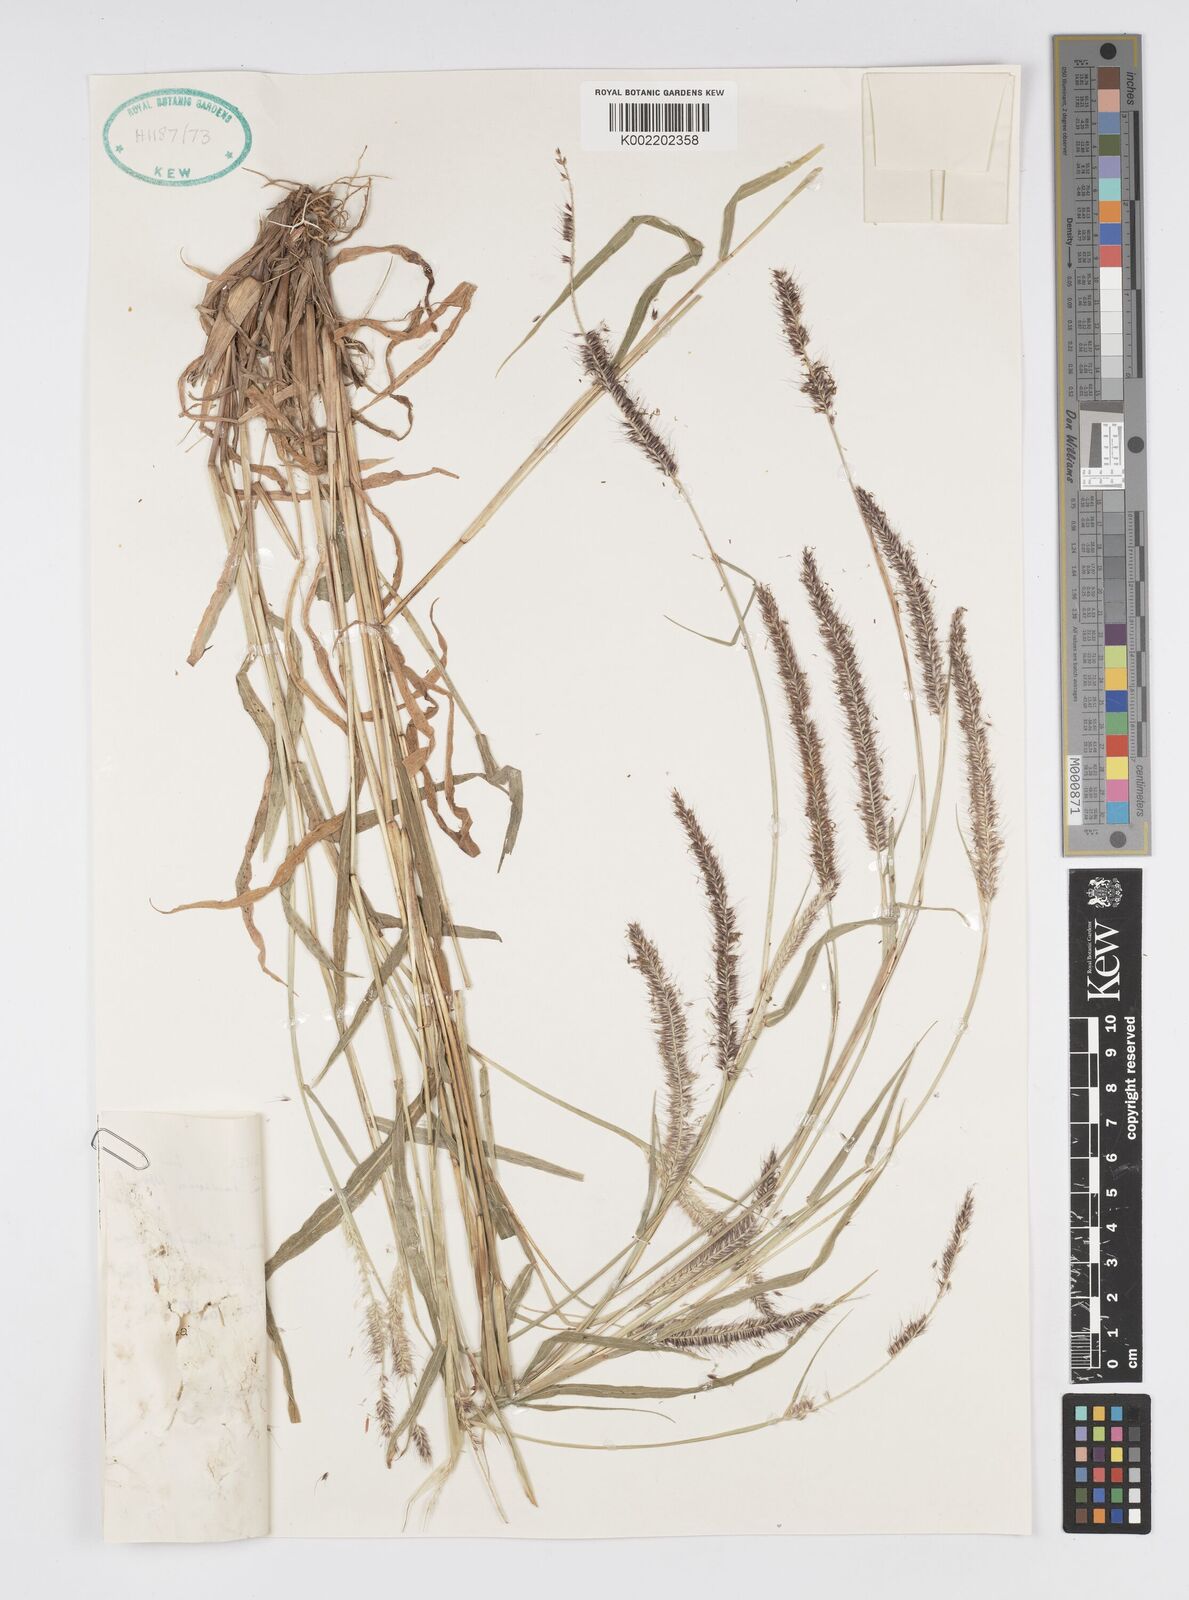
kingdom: Plantae
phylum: Tracheophyta
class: Liliopsida
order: Poales
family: Poaceae
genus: Cenchrus
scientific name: Cenchrus hordeoides
